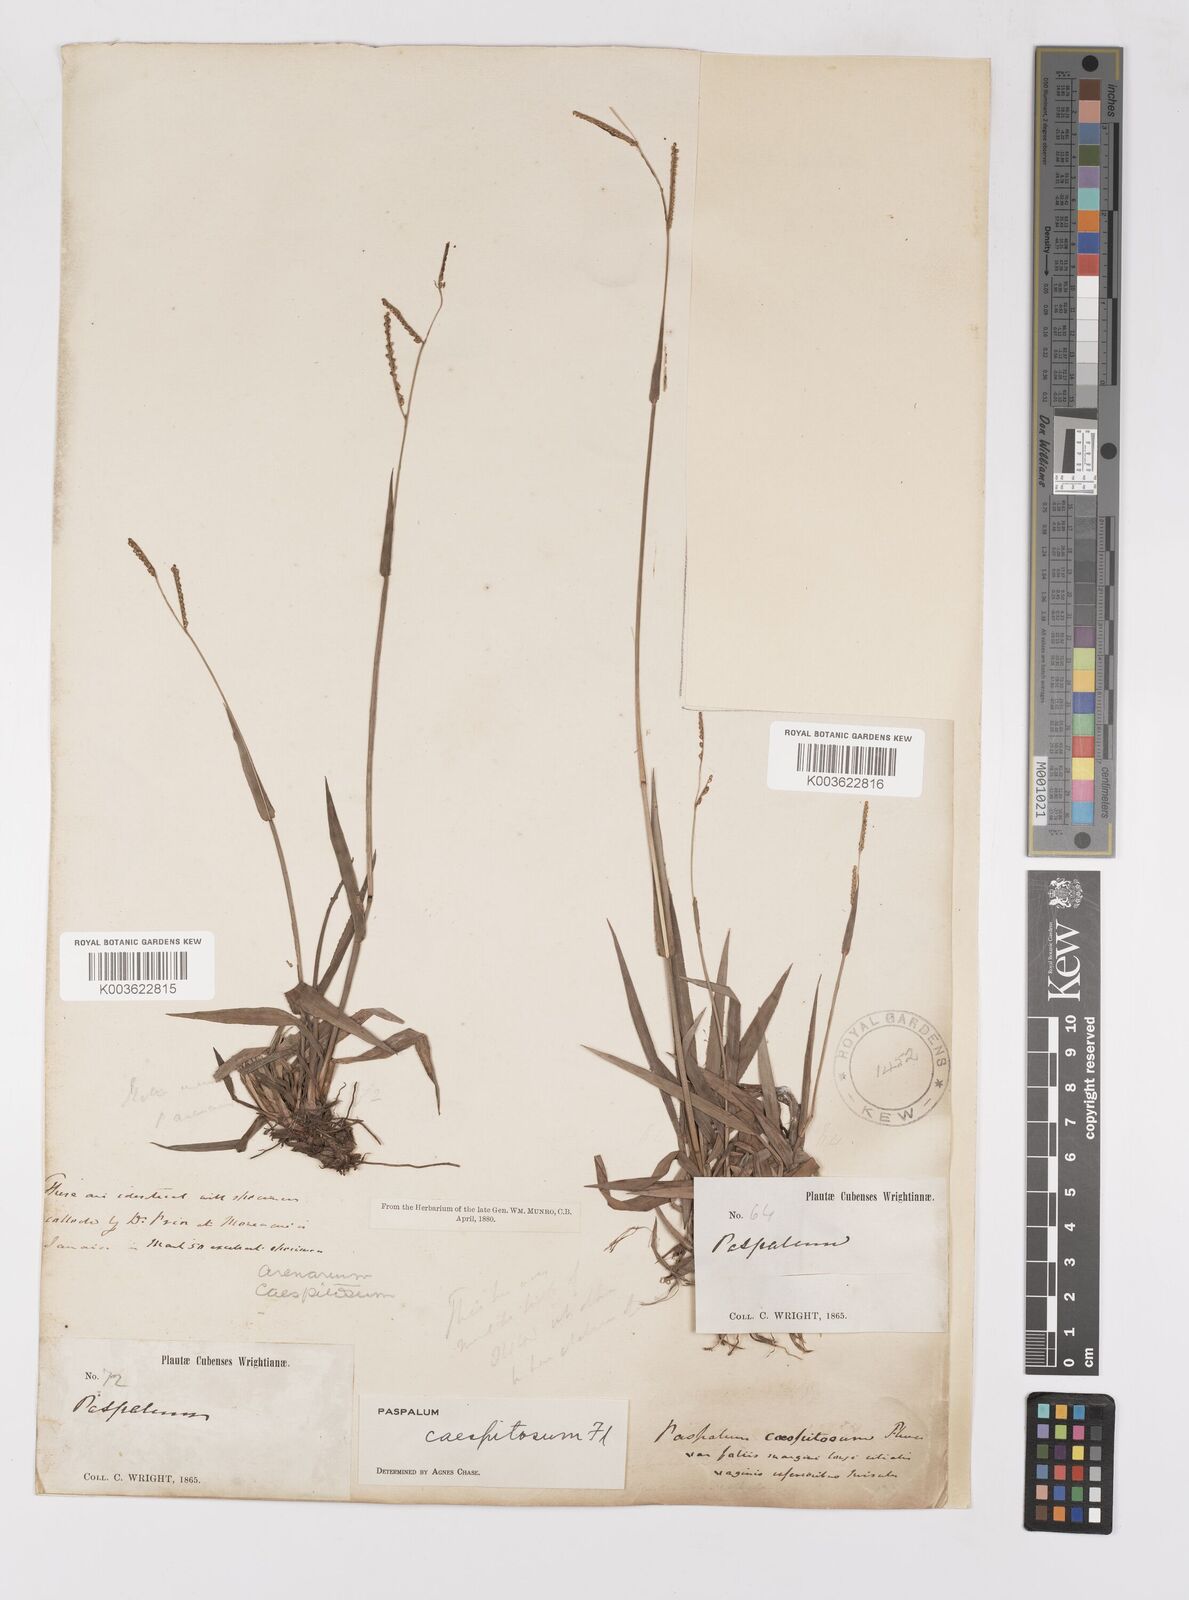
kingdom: Plantae
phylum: Tracheophyta
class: Liliopsida
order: Poales
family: Poaceae
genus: Paspalum
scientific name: Paspalum caespitosum
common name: Blue crowngrass
